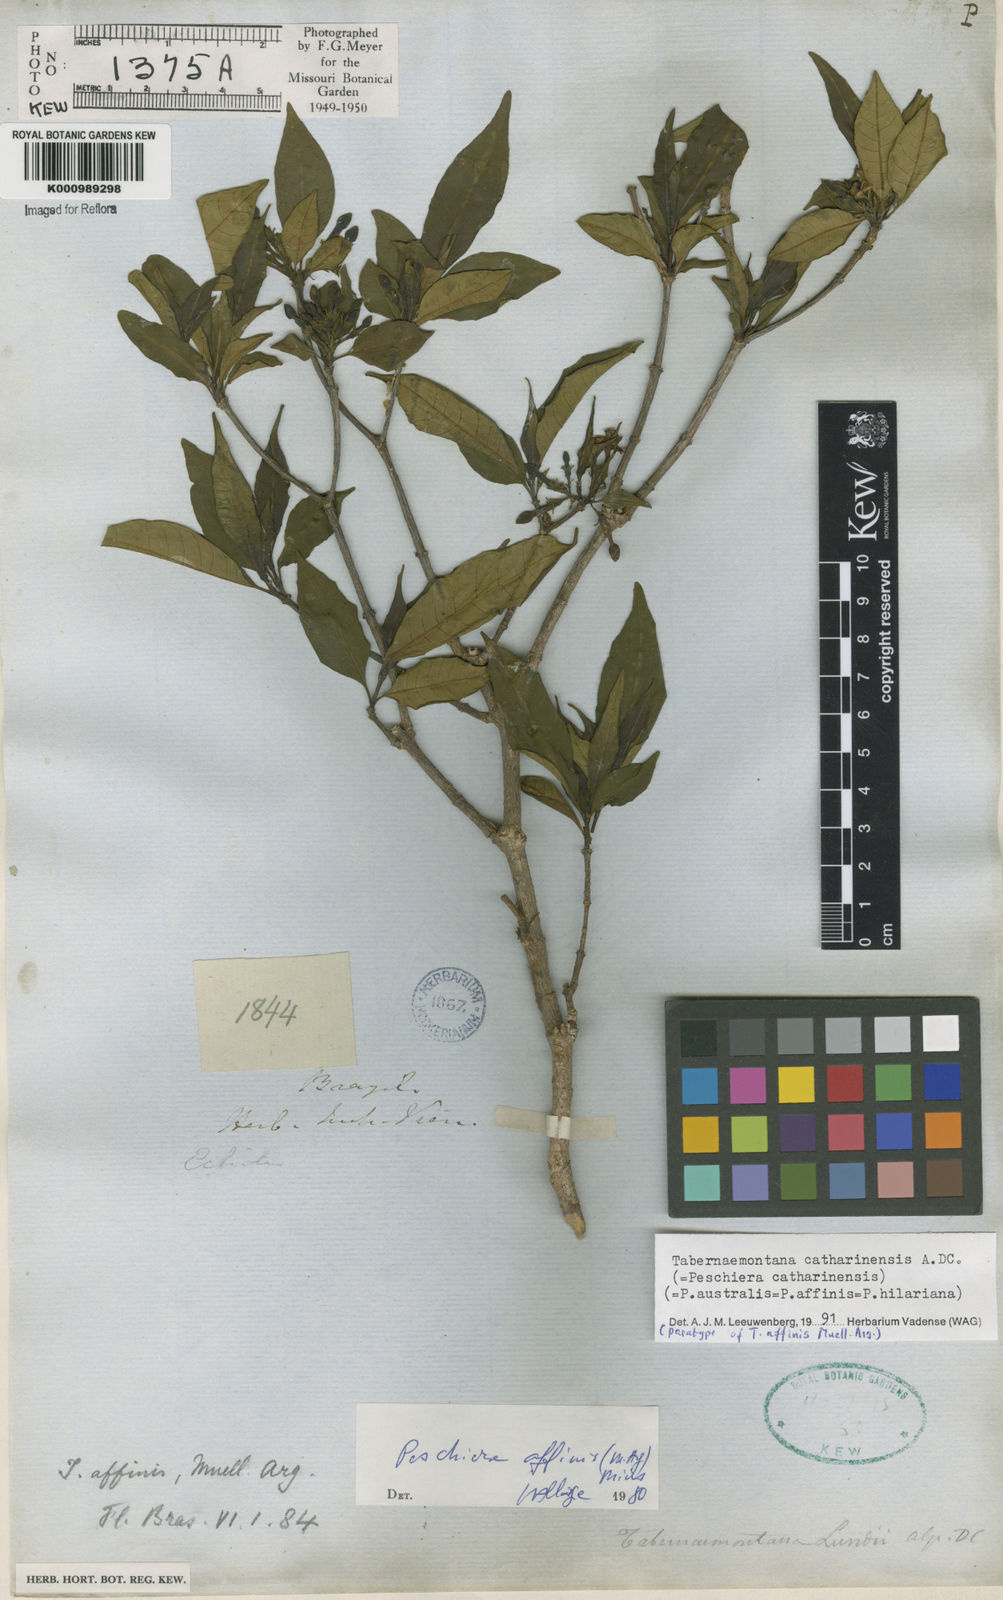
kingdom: Plantae
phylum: Tracheophyta
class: Magnoliopsida
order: Gentianales
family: Apocynaceae
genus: Tabernaemontana
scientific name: Tabernaemontana catharinensis
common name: Pinwheel-flower
